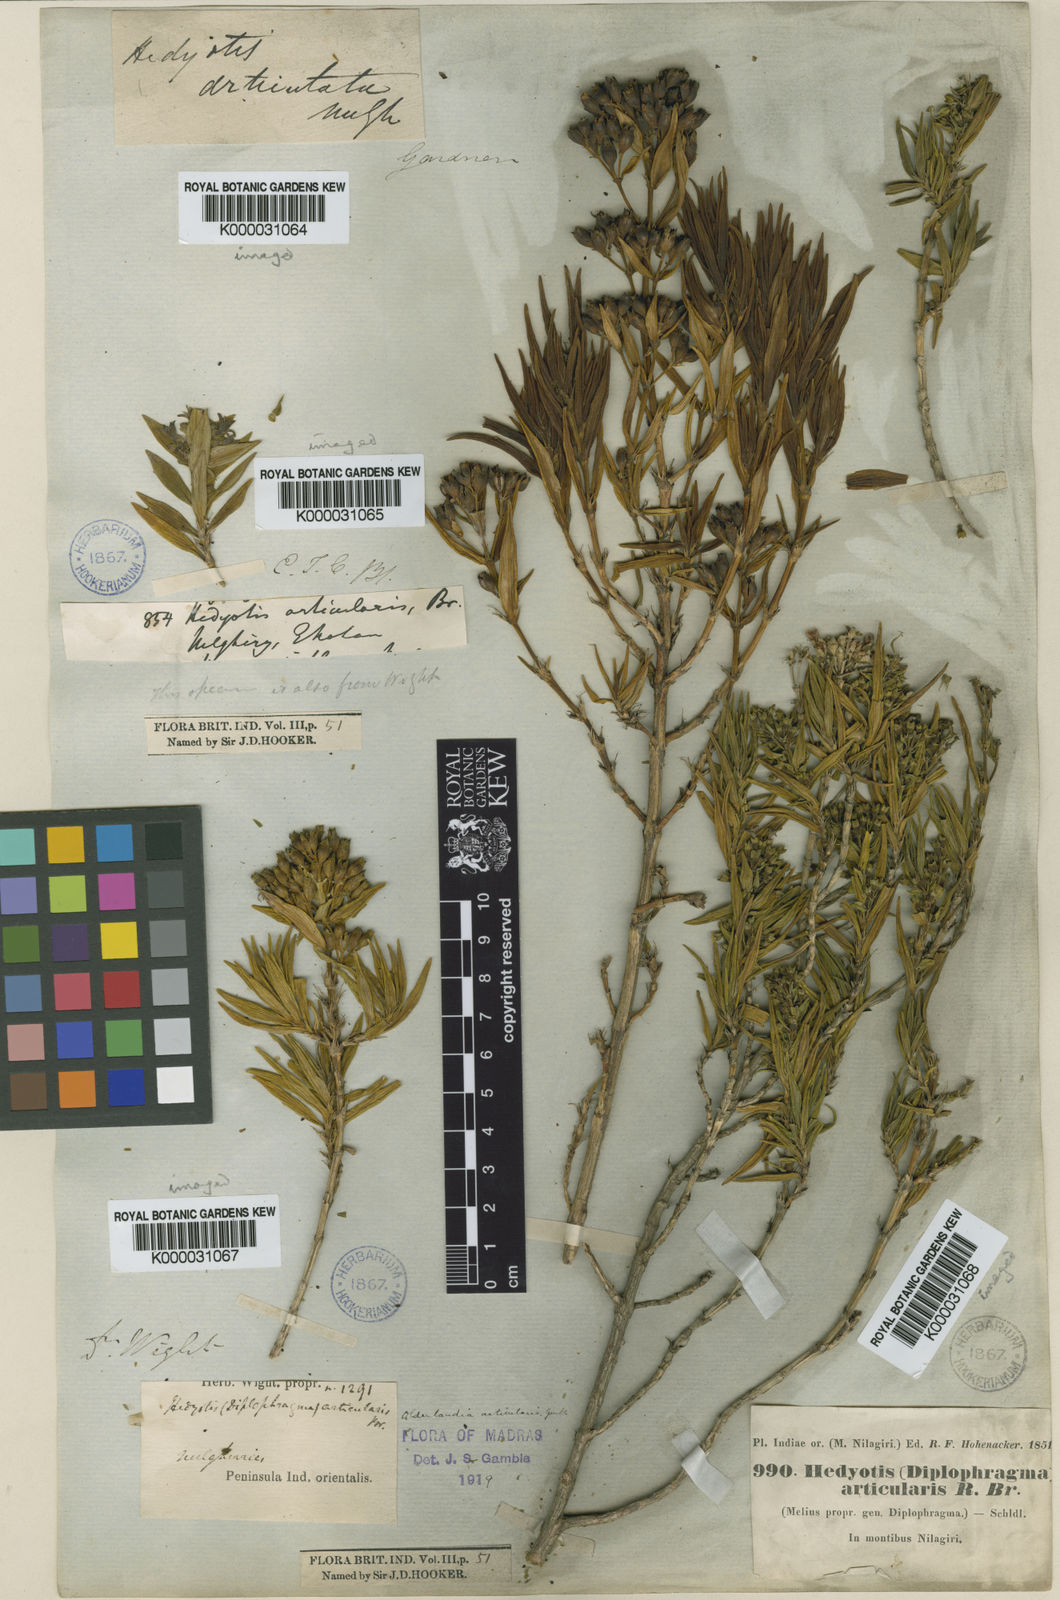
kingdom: Plantae
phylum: Tracheophyta
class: Magnoliopsida
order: Gentianales
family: Rubiaceae
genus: Hedyotis
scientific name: Hedyotis
